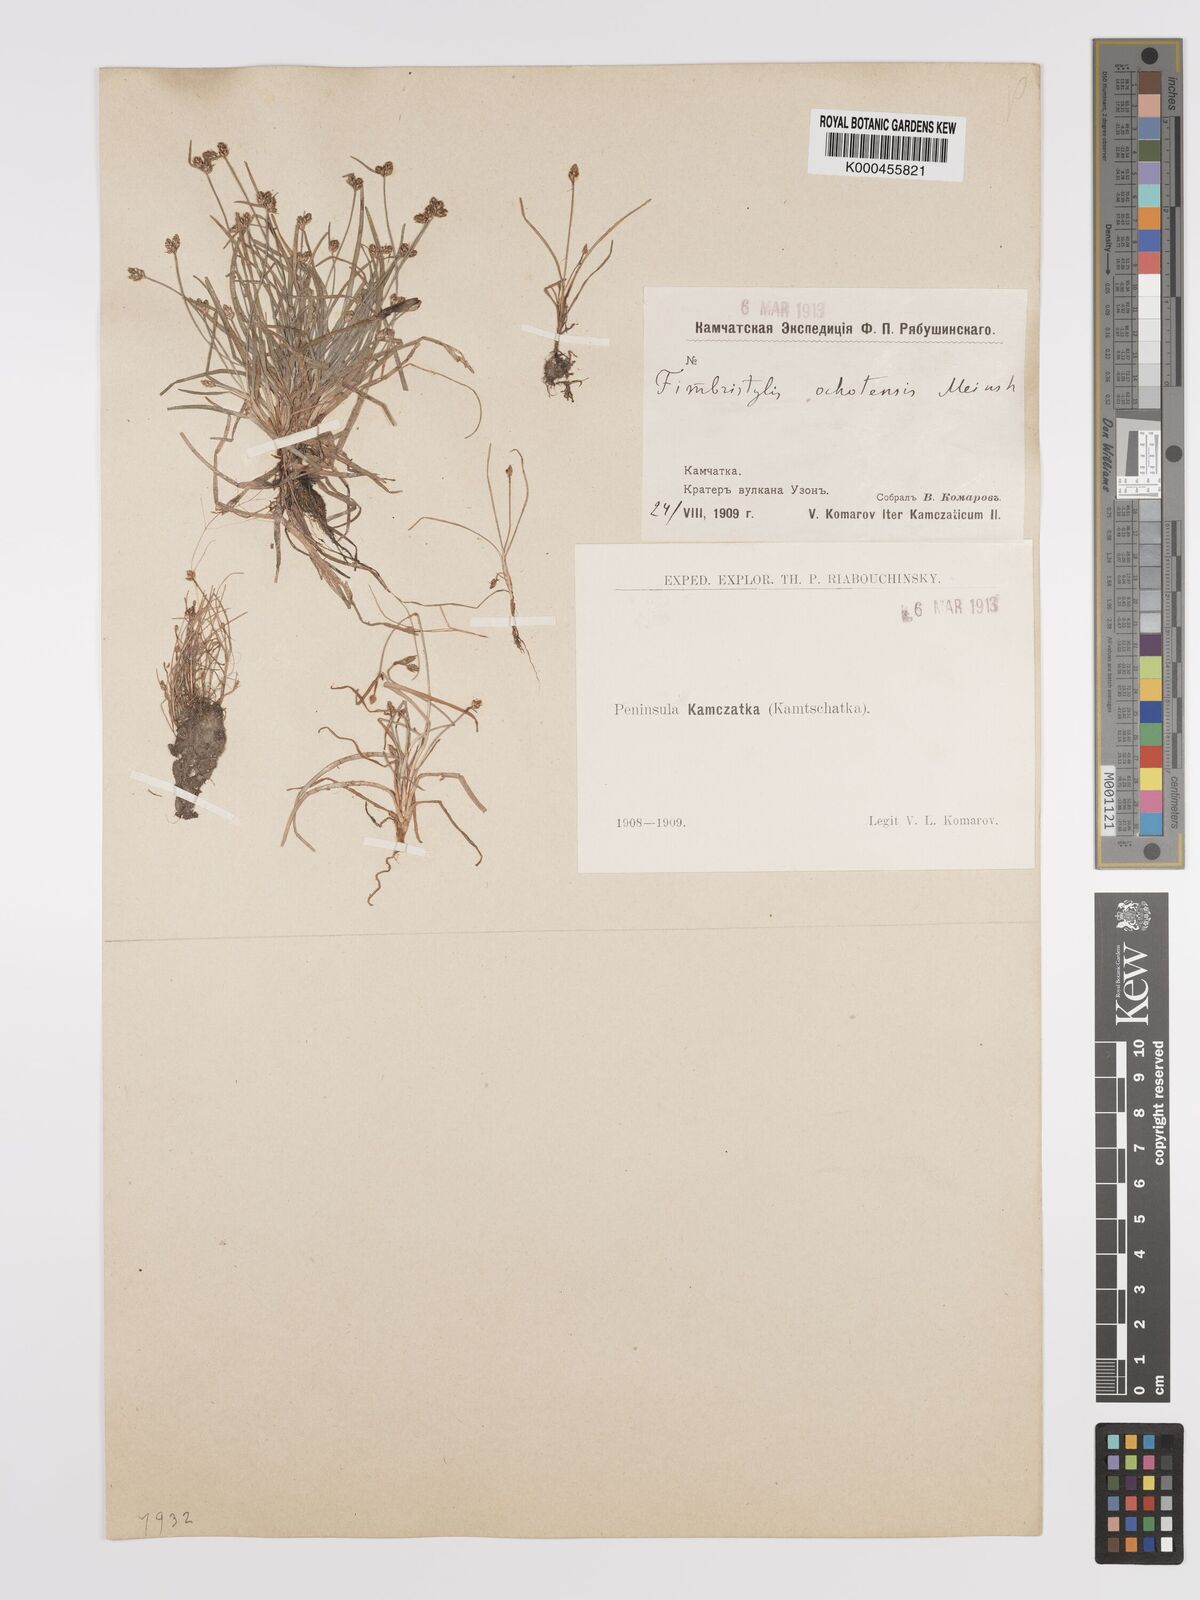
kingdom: Plantae
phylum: Tracheophyta
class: Liliopsida
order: Poales
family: Cyperaceae
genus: Fimbristylis
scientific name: Fimbristylis dichotoma
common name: Forked fimbry
